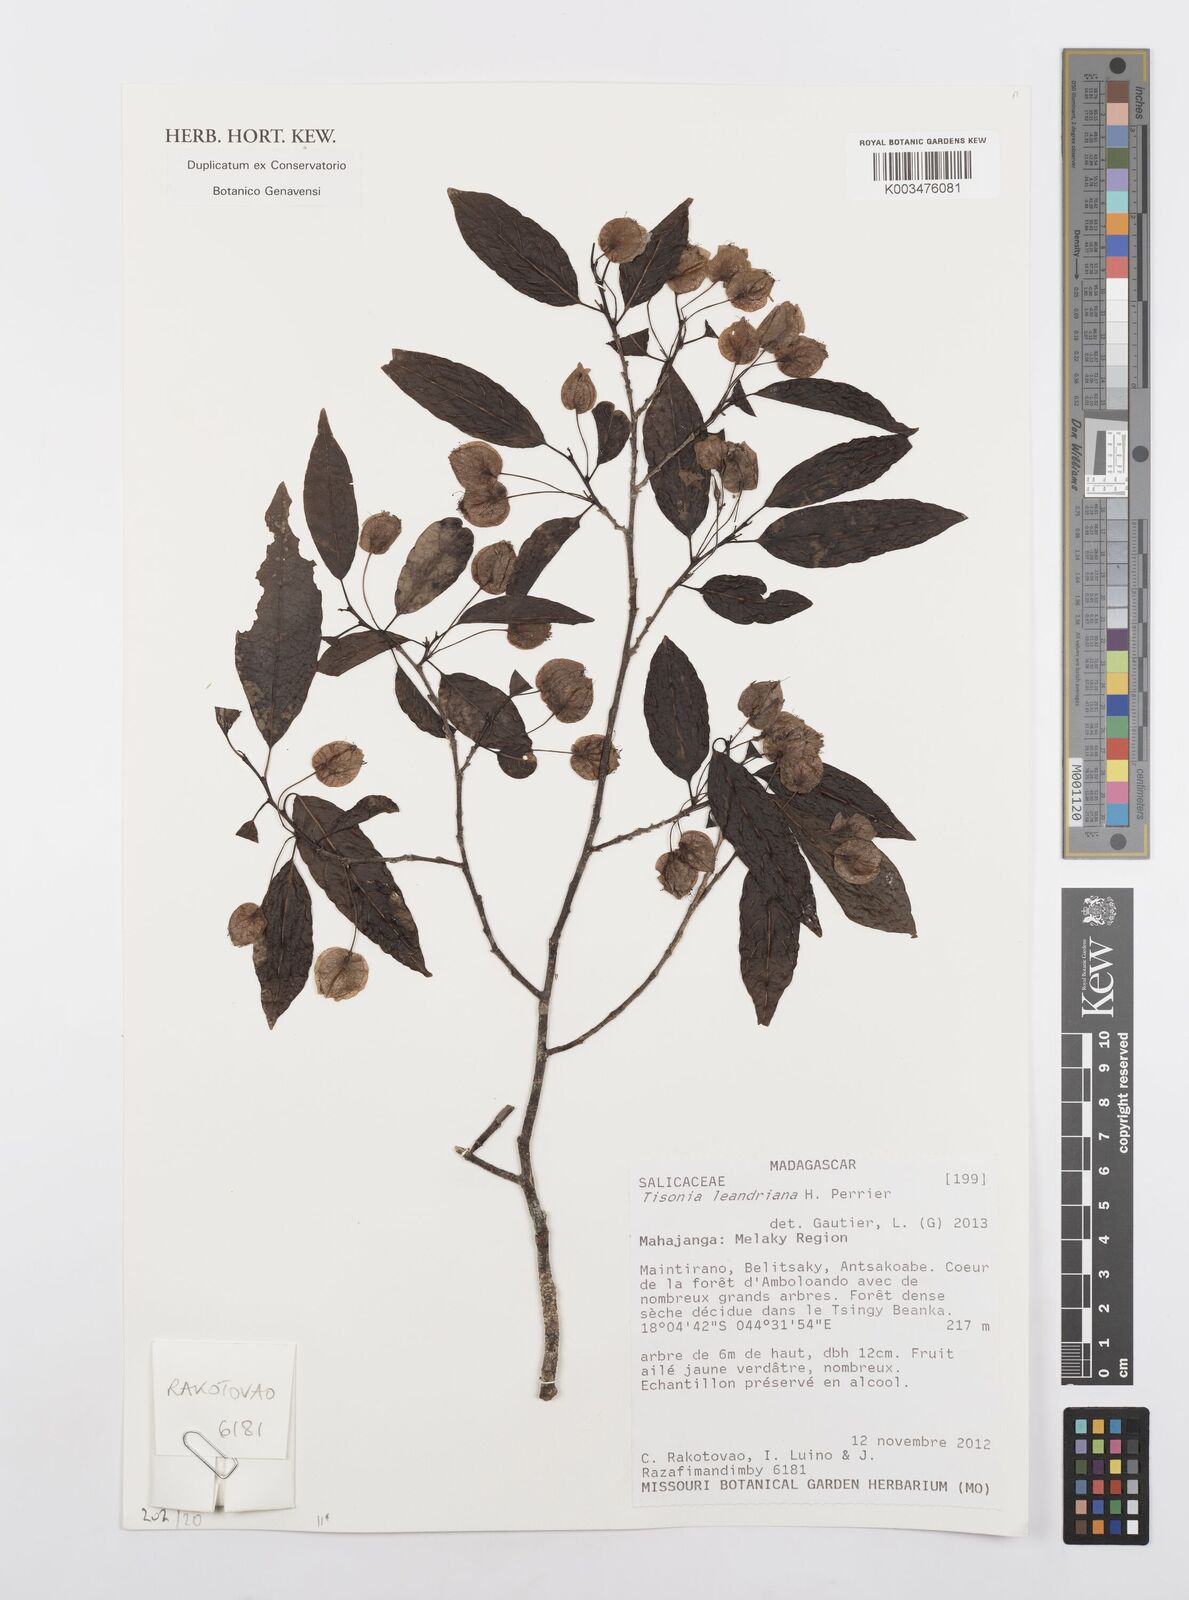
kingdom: Plantae
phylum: Tracheophyta
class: Magnoliopsida
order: Malpighiales
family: Salicaceae
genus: Tisonia
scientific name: Tisonia leandriana
